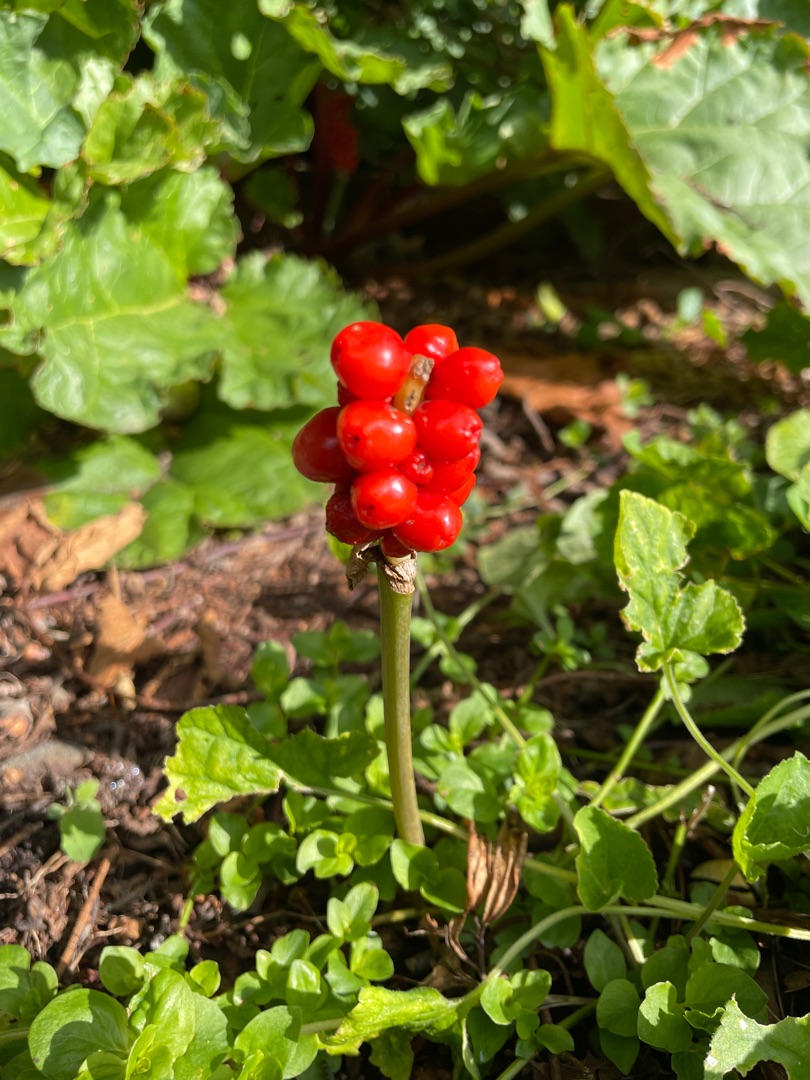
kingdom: Plantae
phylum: Tracheophyta
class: Liliopsida
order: Alismatales
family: Araceae
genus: Arum
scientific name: Arum
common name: Arumslægten
